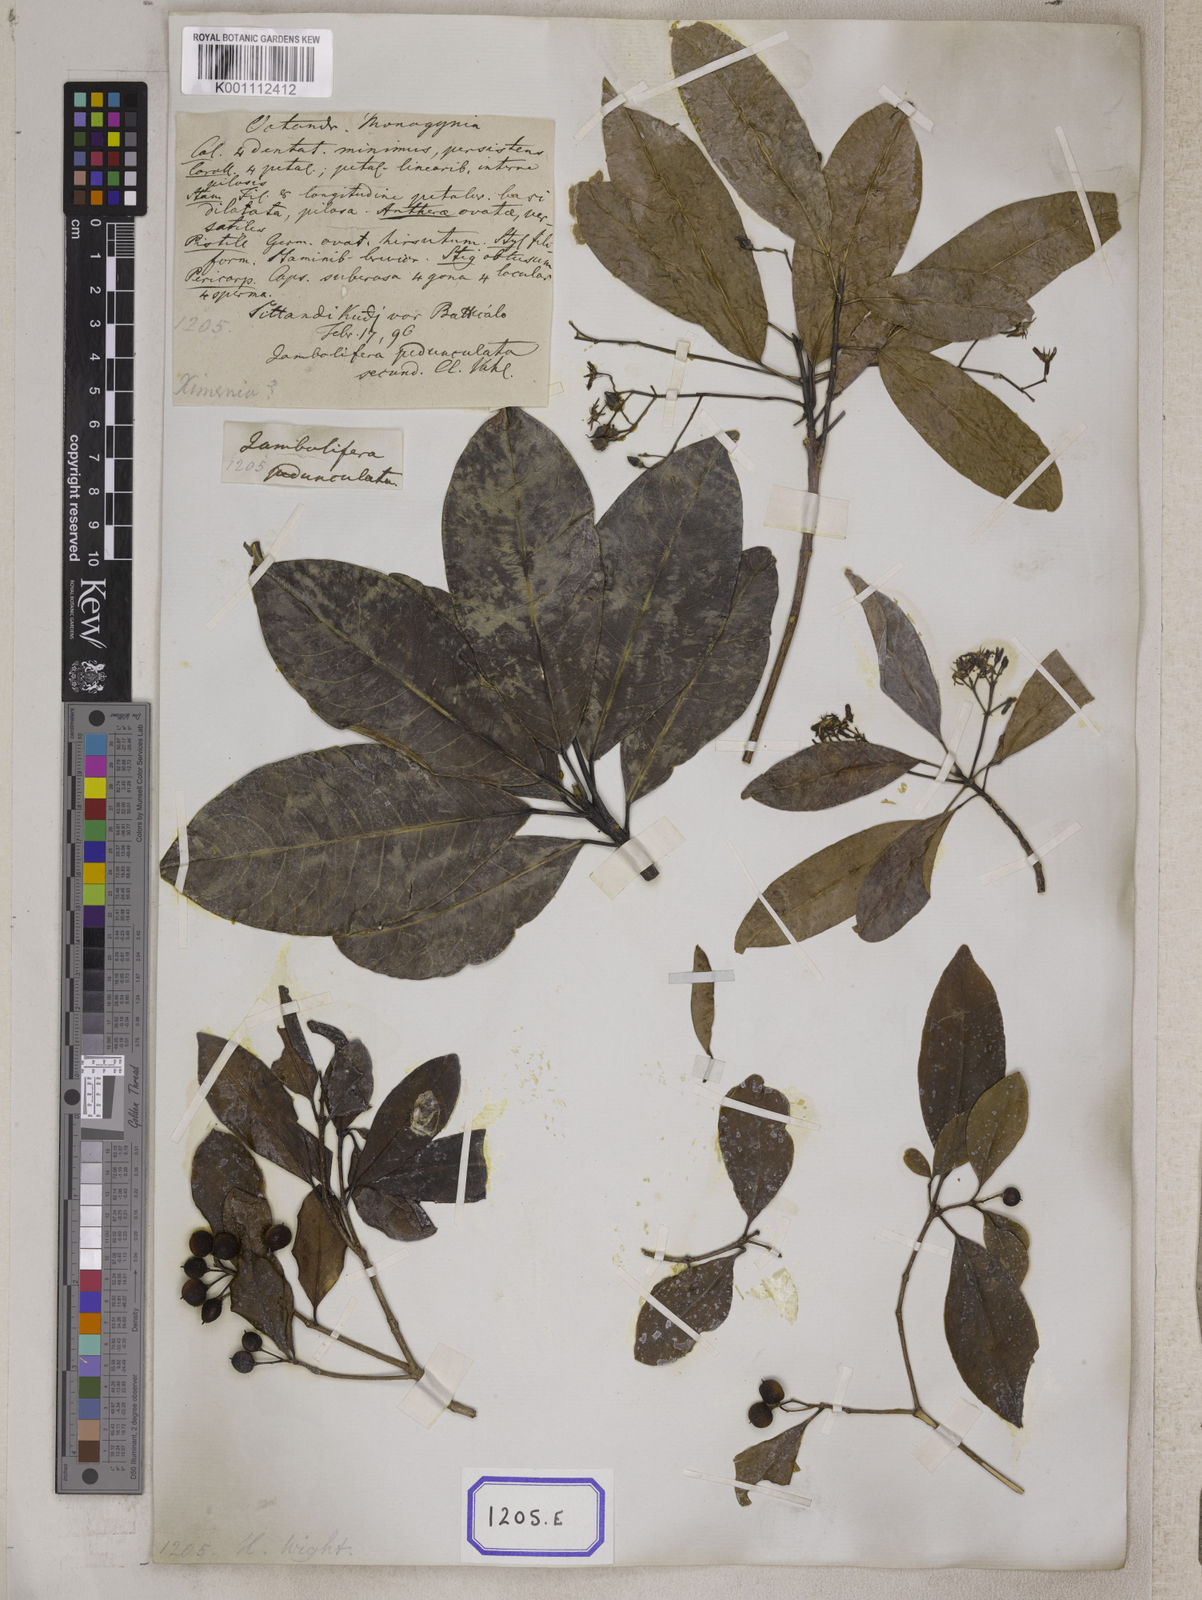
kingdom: Plantae
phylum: Tracheophyta
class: Magnoliopsida
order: Sapindales
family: Rutaceae
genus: Acronychia
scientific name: Acronychia
